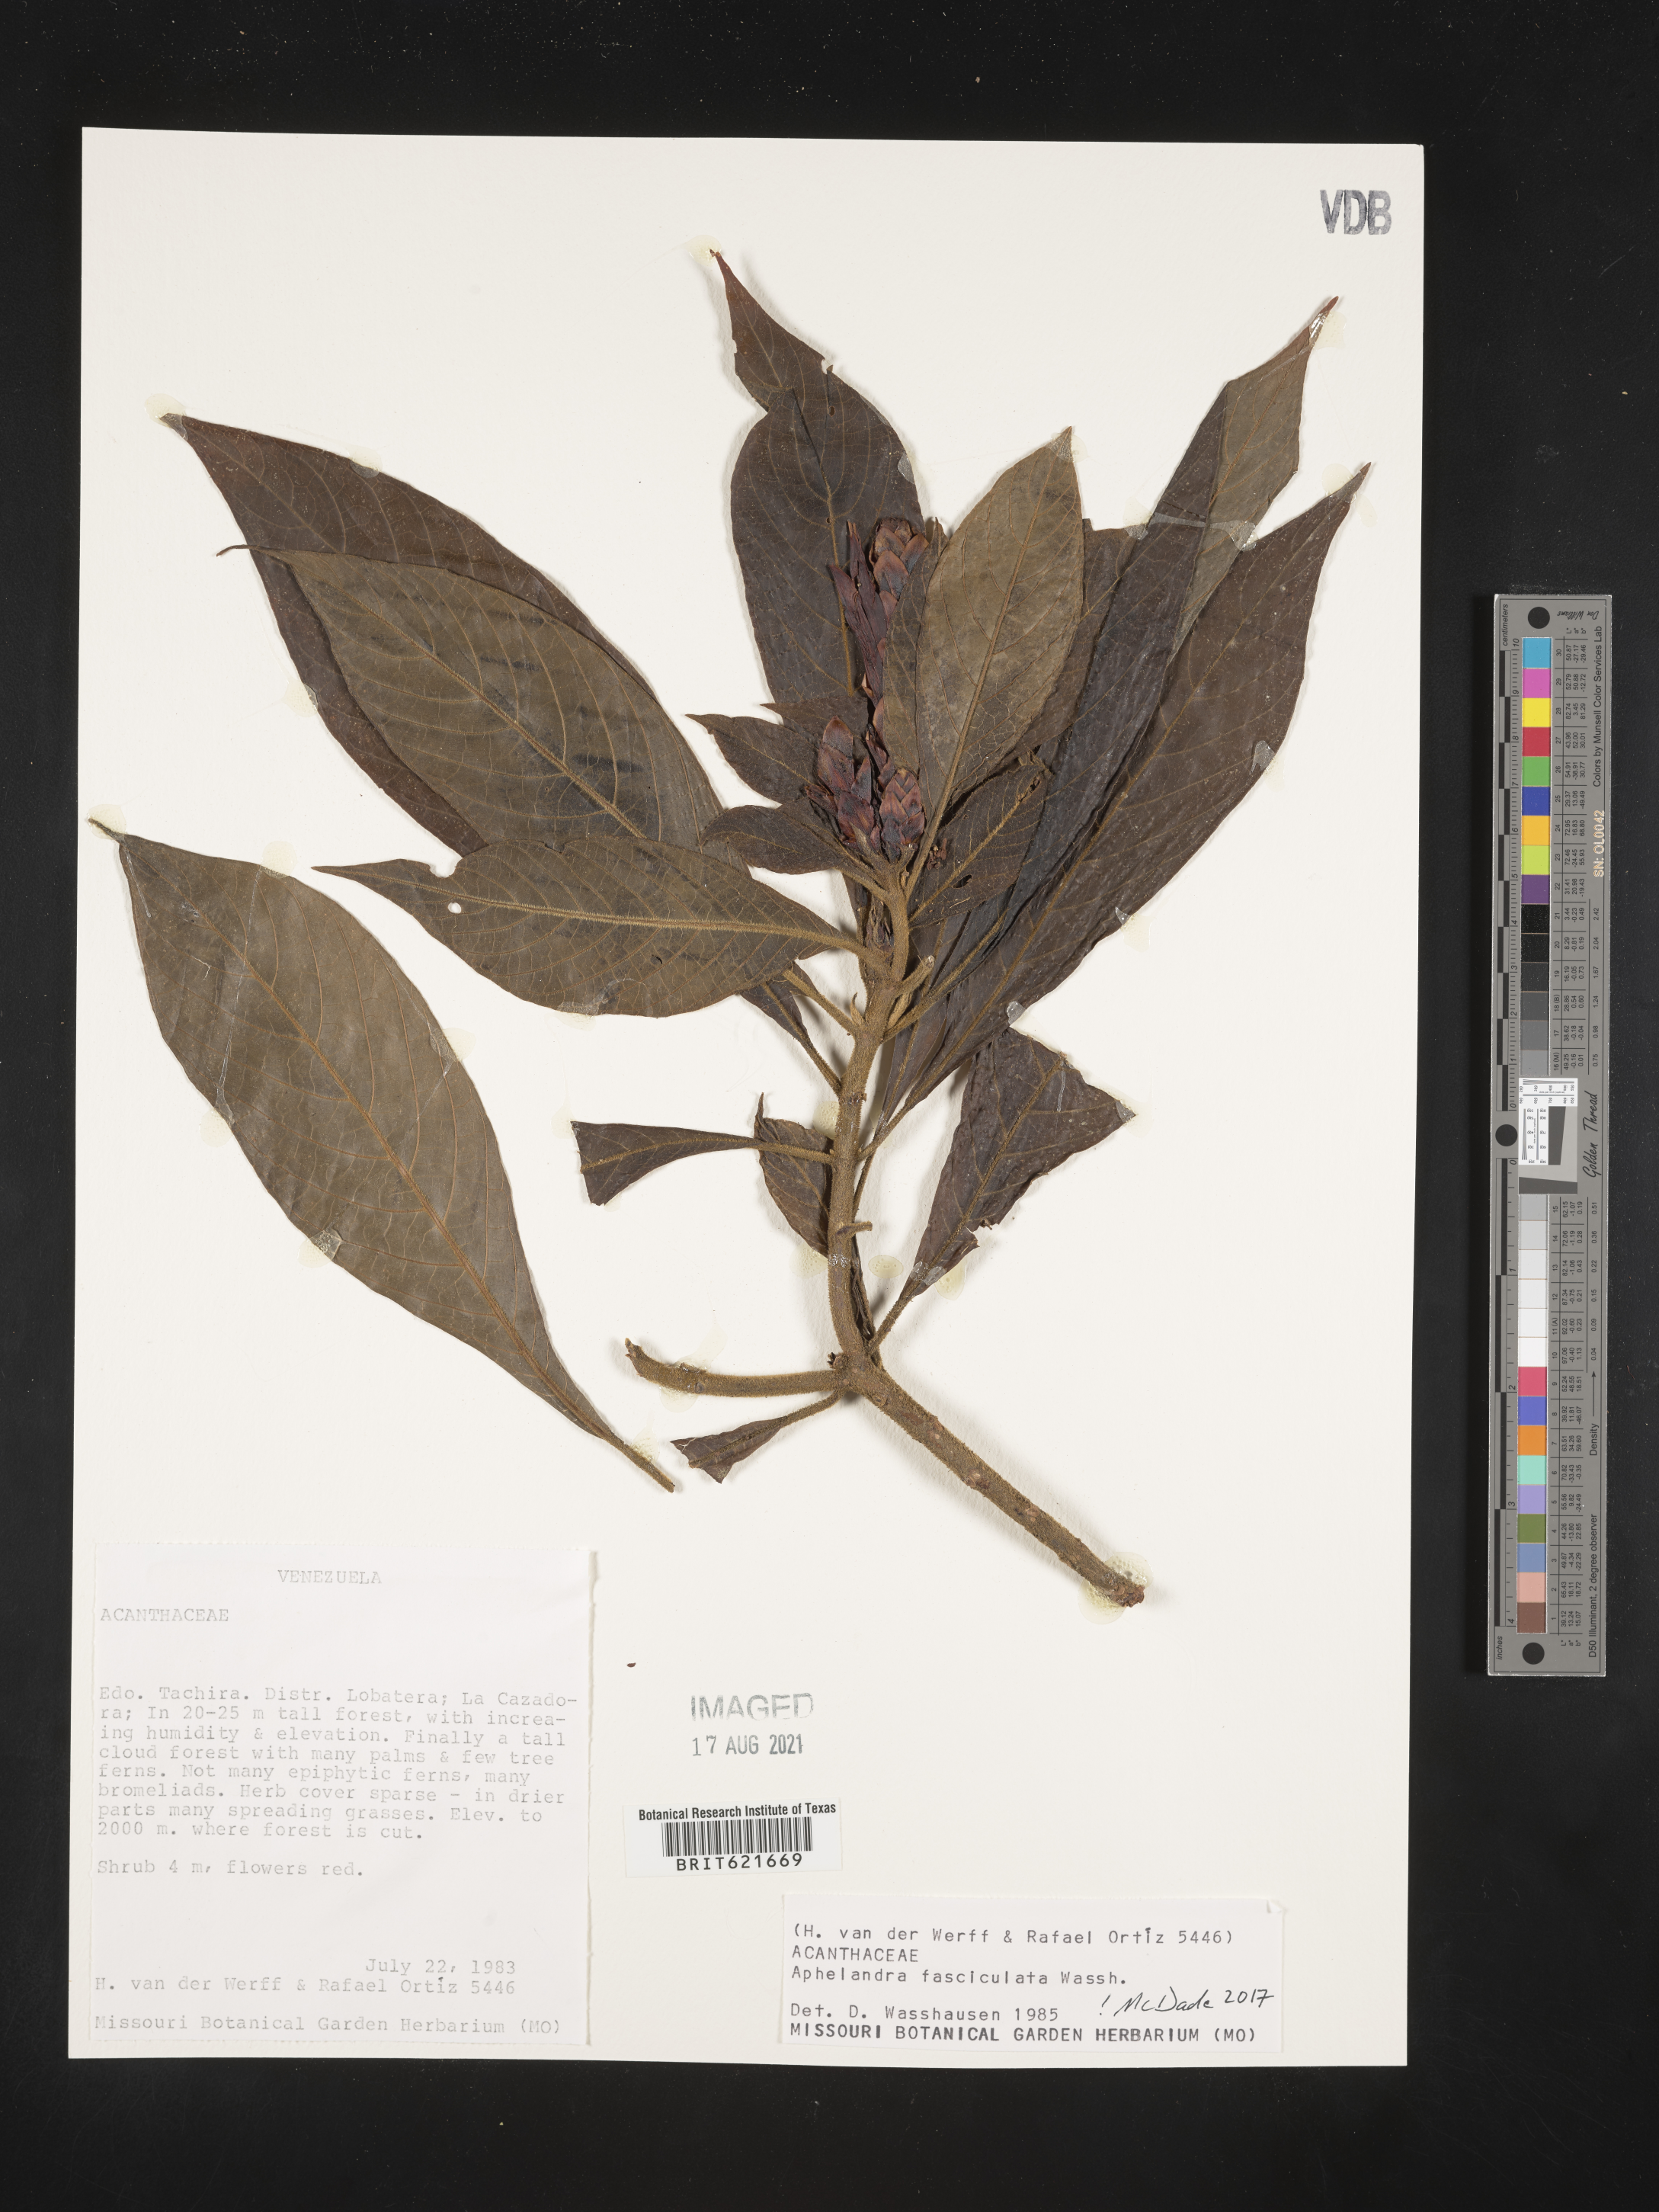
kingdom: Plantae
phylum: Tracheophyta
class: Magnoliopsida
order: Lamiales
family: Acanthaceae
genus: Aphelandra
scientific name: Aphelandra fasciculata
